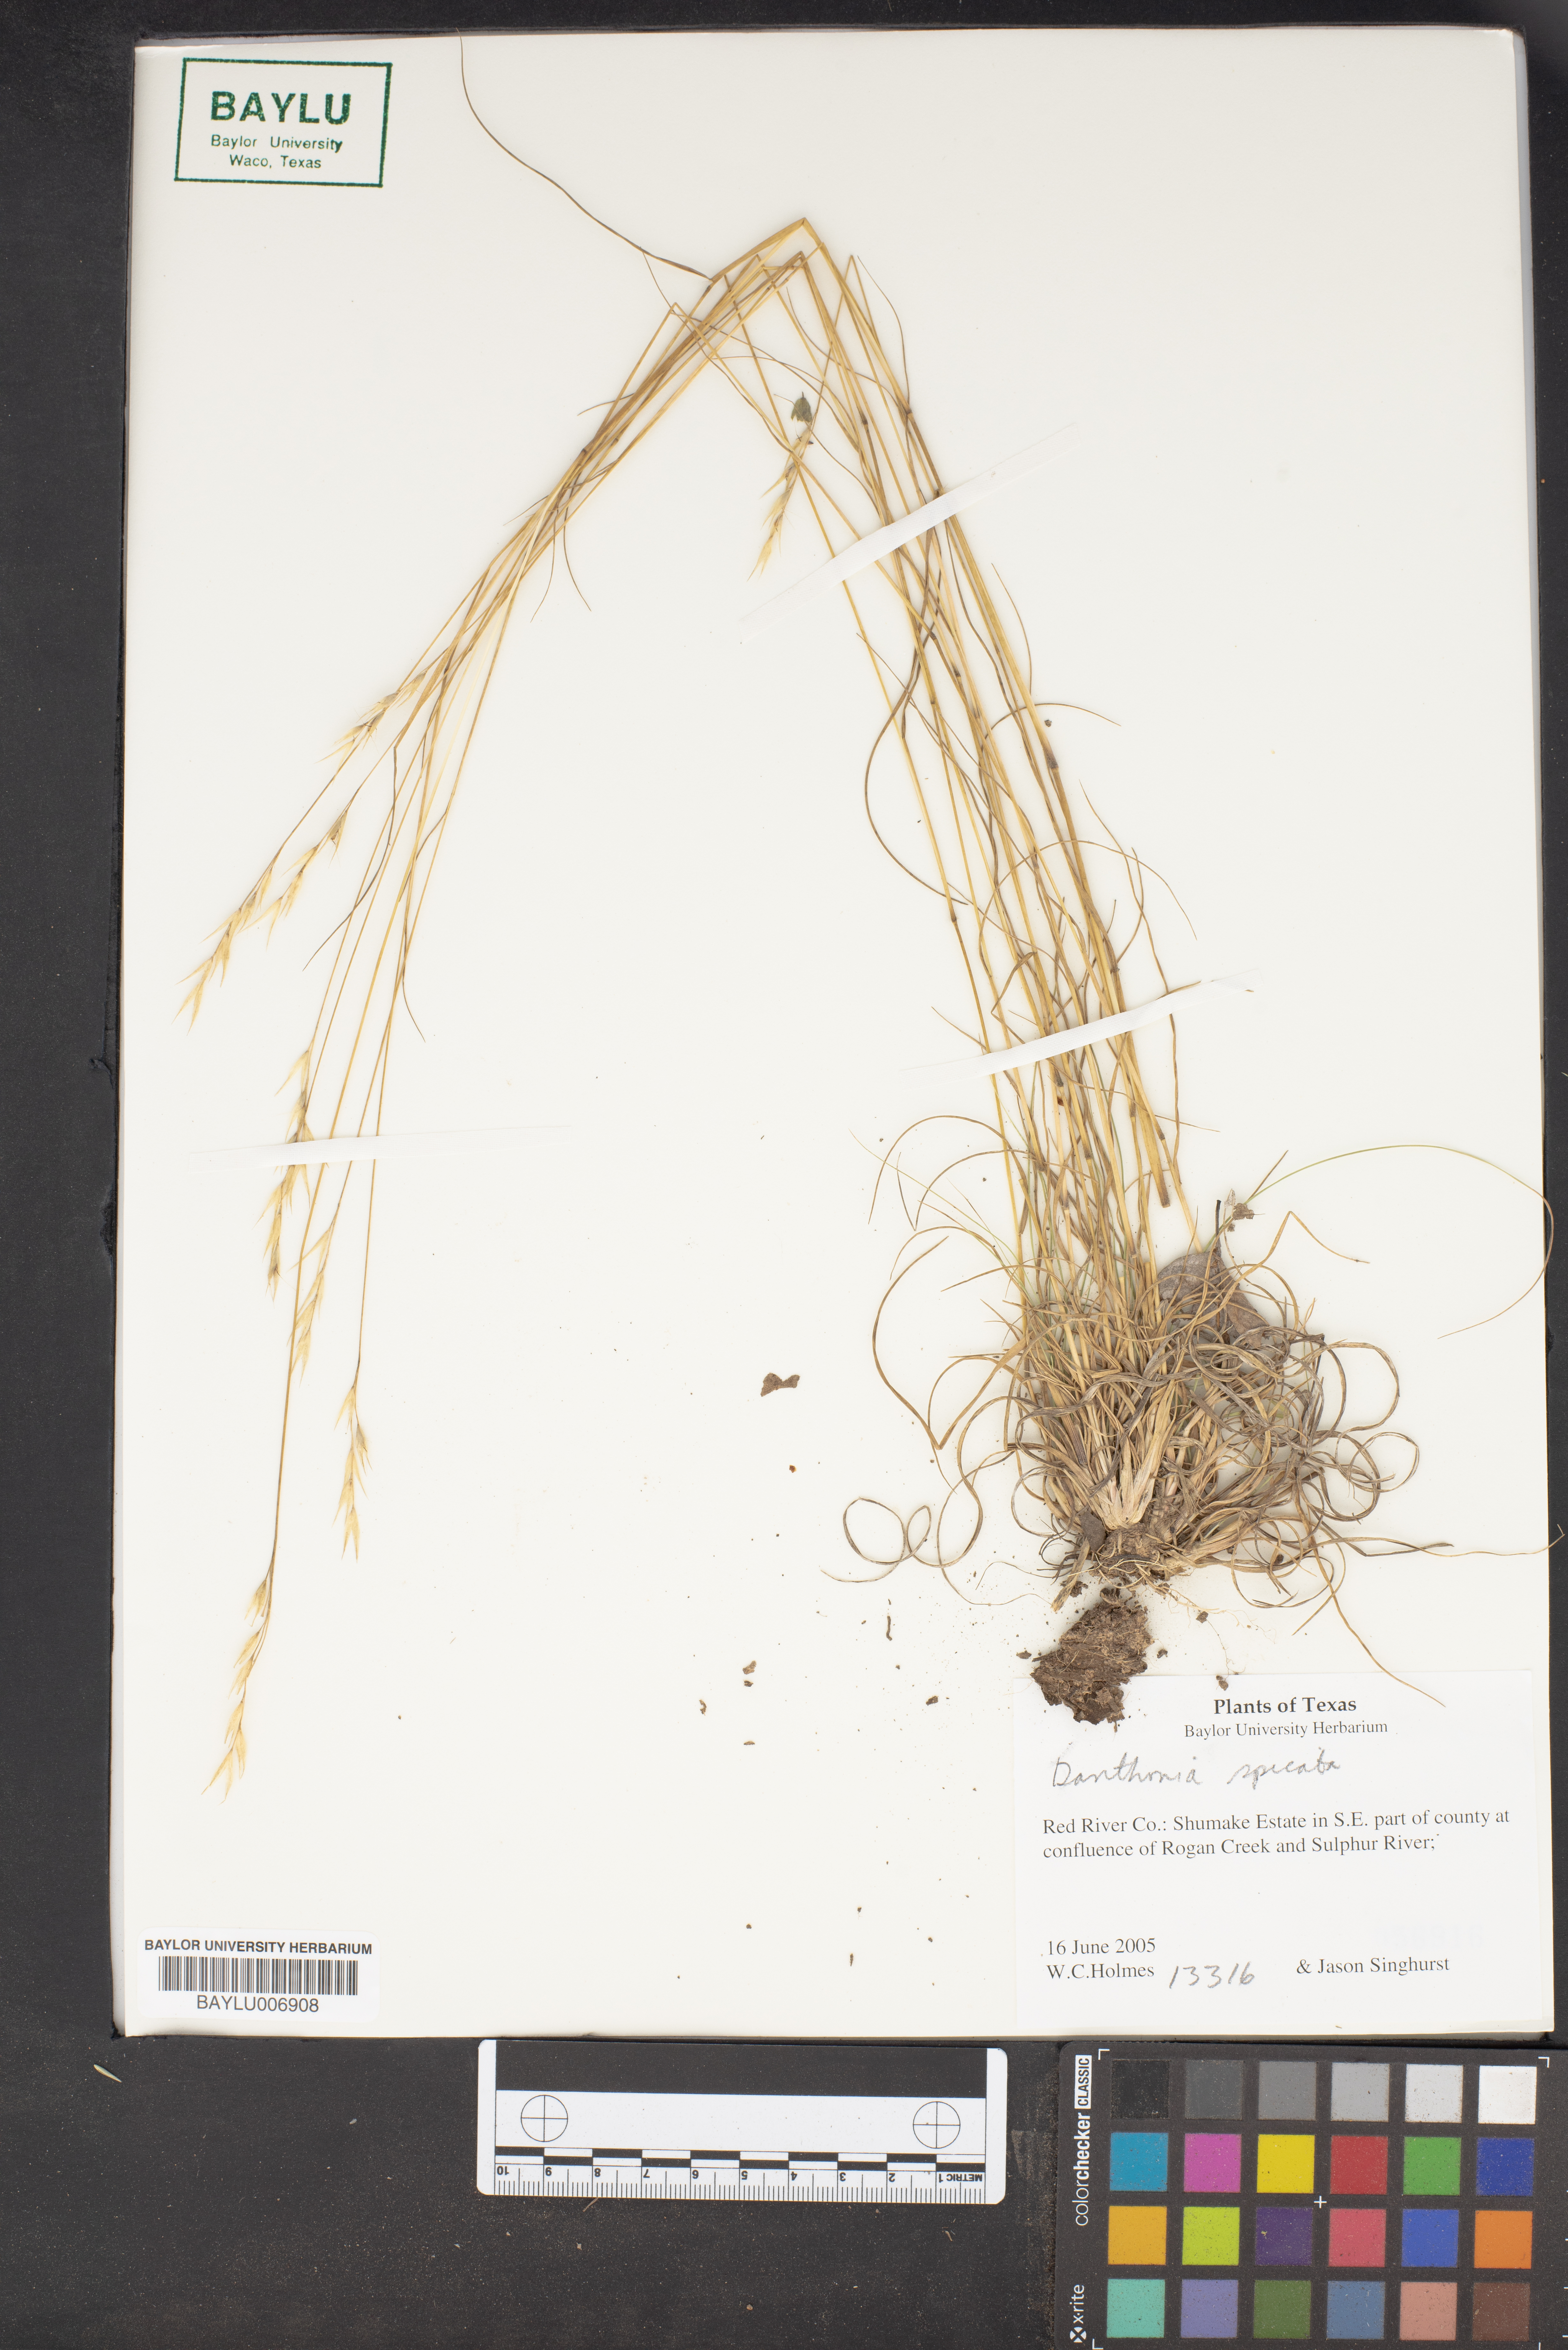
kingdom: Plantae
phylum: Tracheophyta
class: Liliopsida
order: Poales
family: Poaceae
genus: Danthonia
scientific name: Danthonia spicata
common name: Common wild oatgrass
